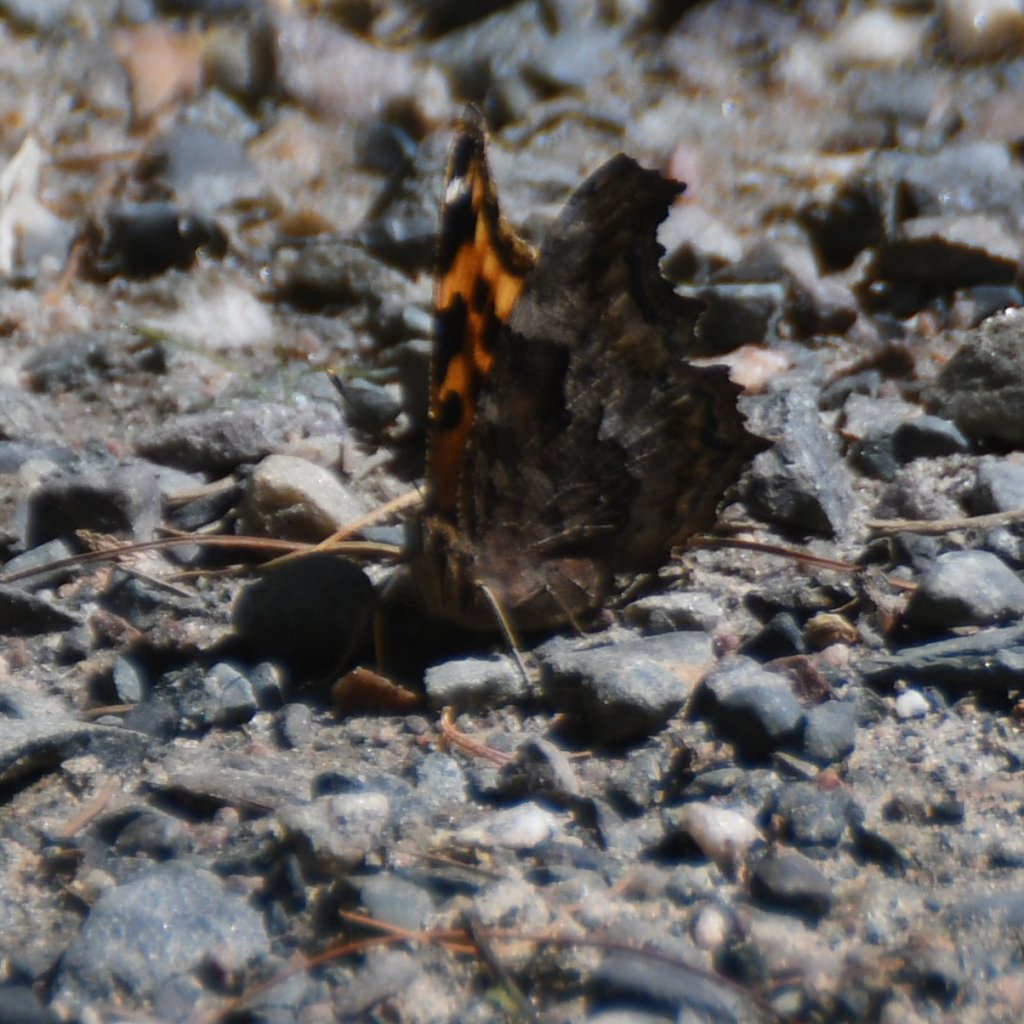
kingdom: Animalia
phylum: Arthropoda
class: Insecta
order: Lepidoptera
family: Nymphalidae
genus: Polygonia
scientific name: Polygonia vaualbum
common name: Compton Tortoiseshell
